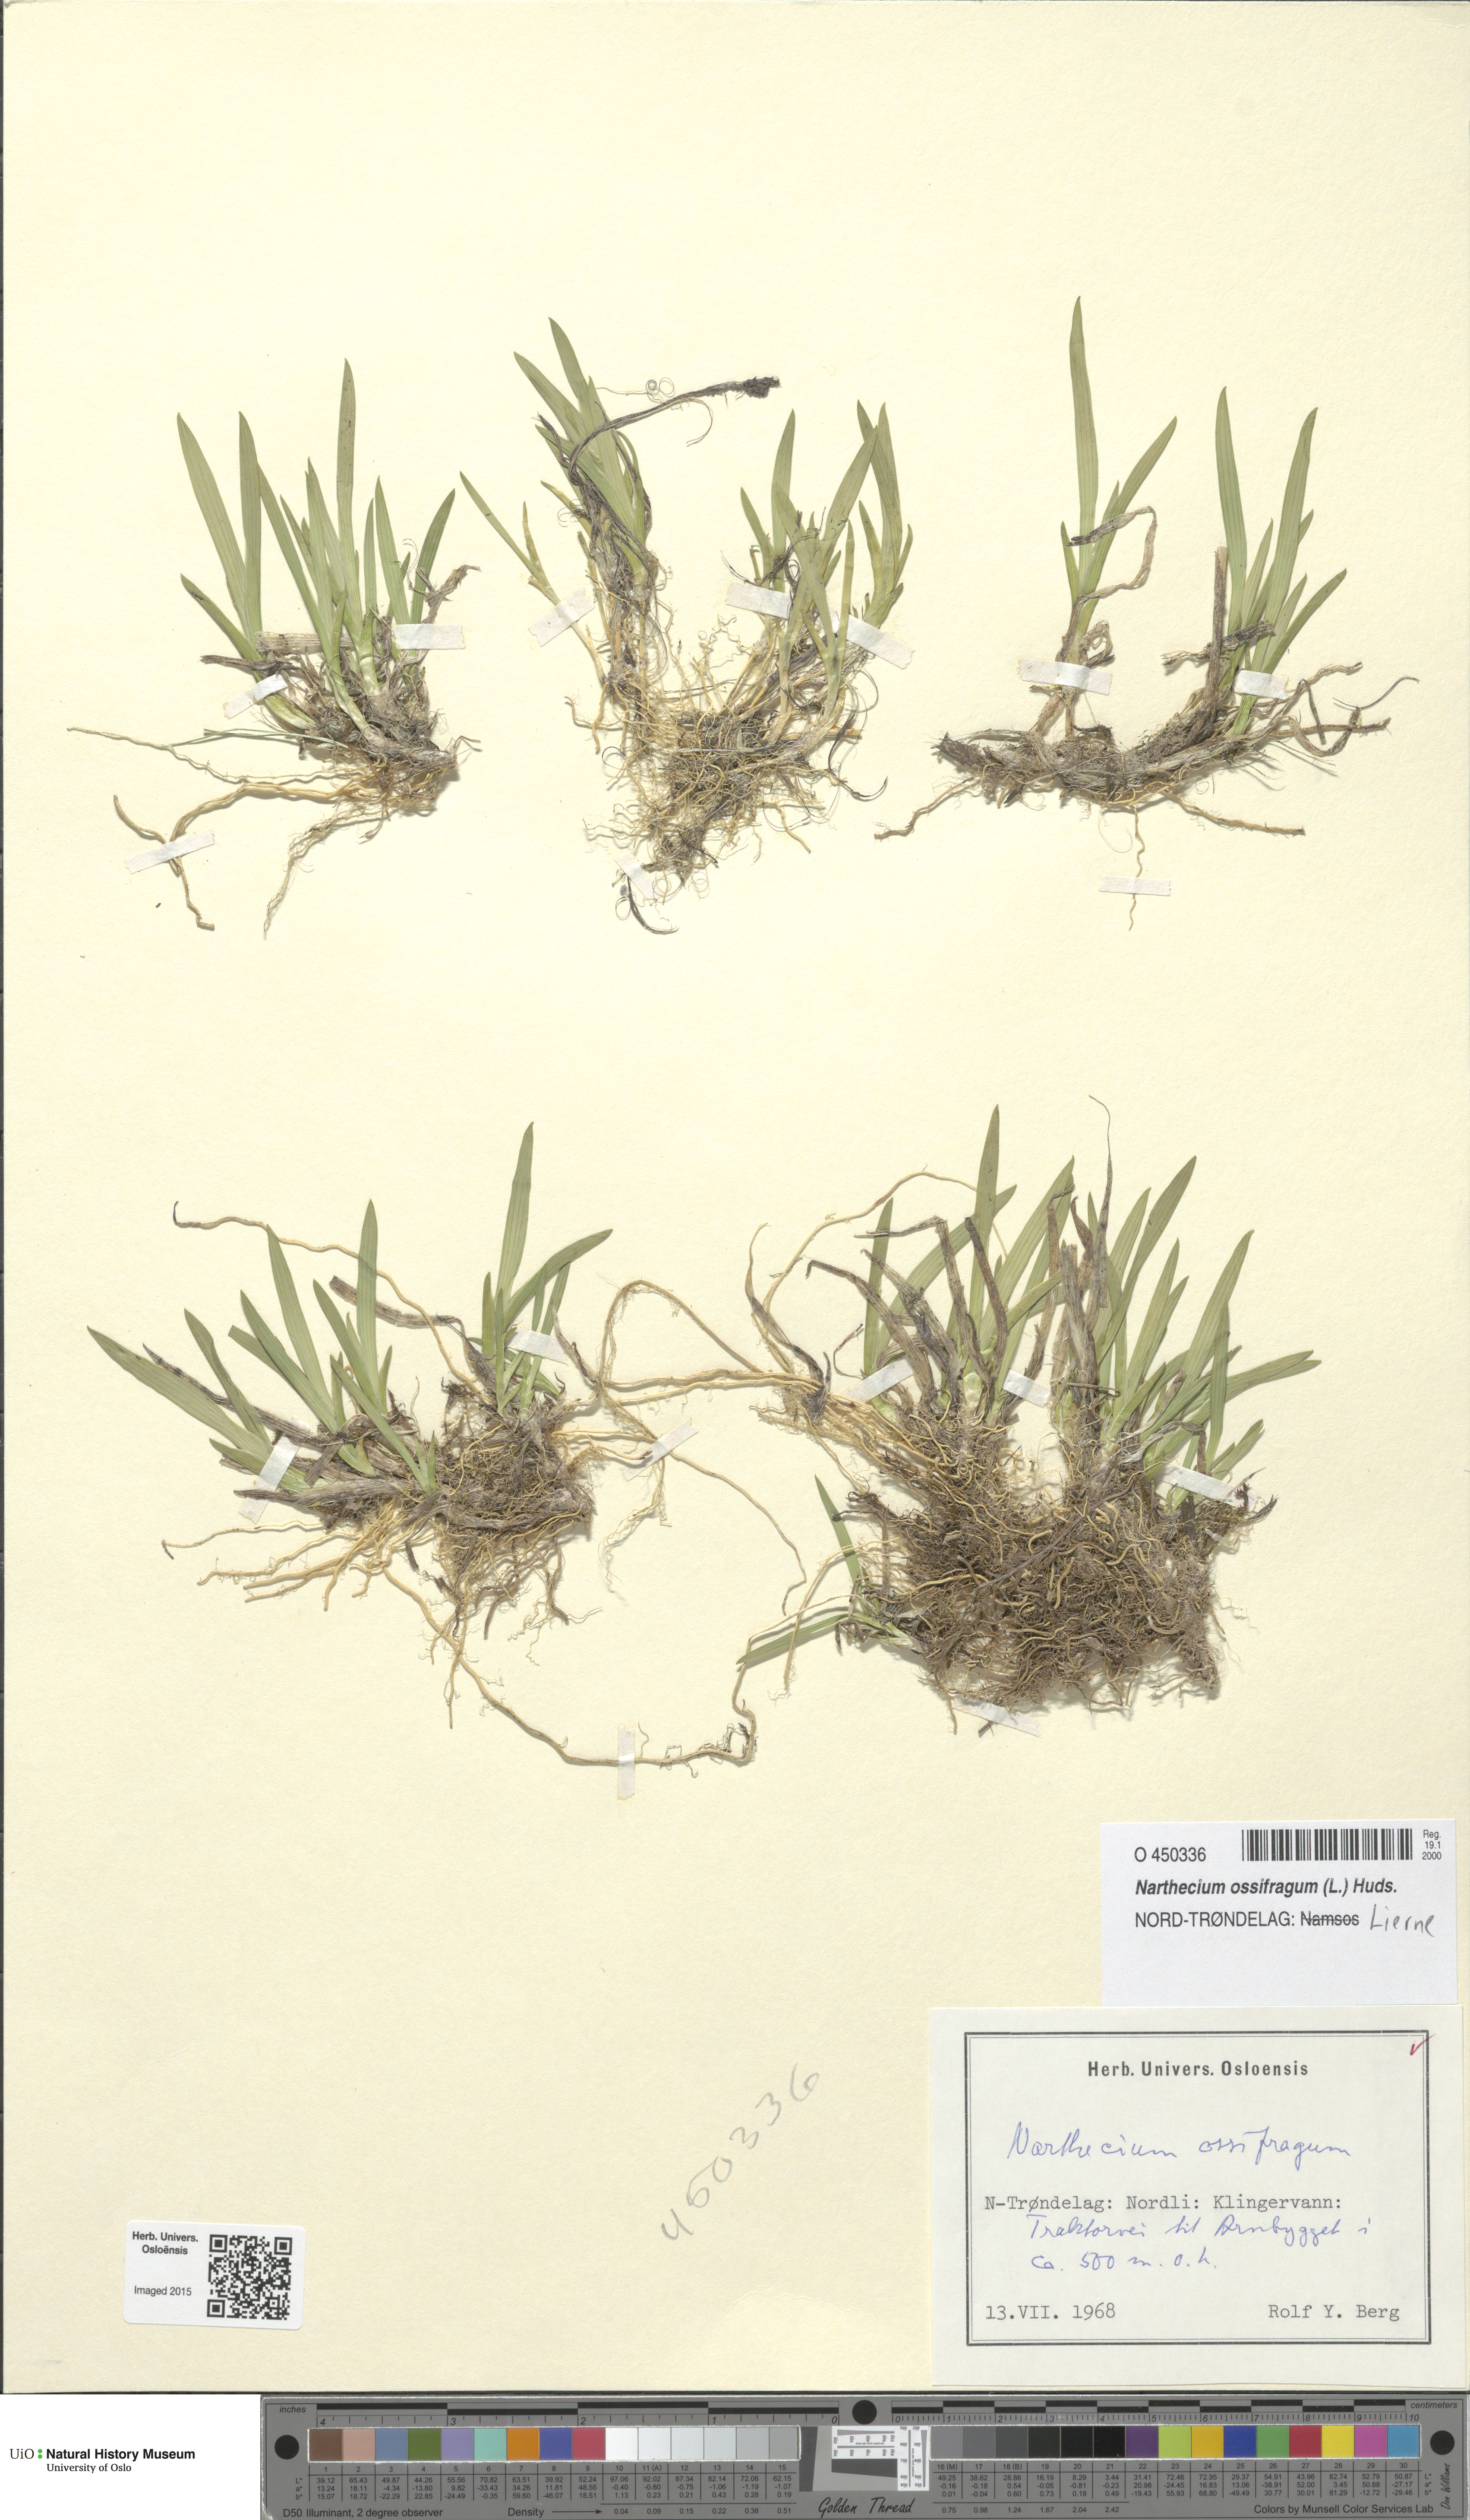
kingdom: Plantae
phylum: Tracheophyta
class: Liliopsida
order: Dioscoreales
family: Nartheciaceae
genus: Narthecium
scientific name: Narthecium ossifragum
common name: Bog asphodel
